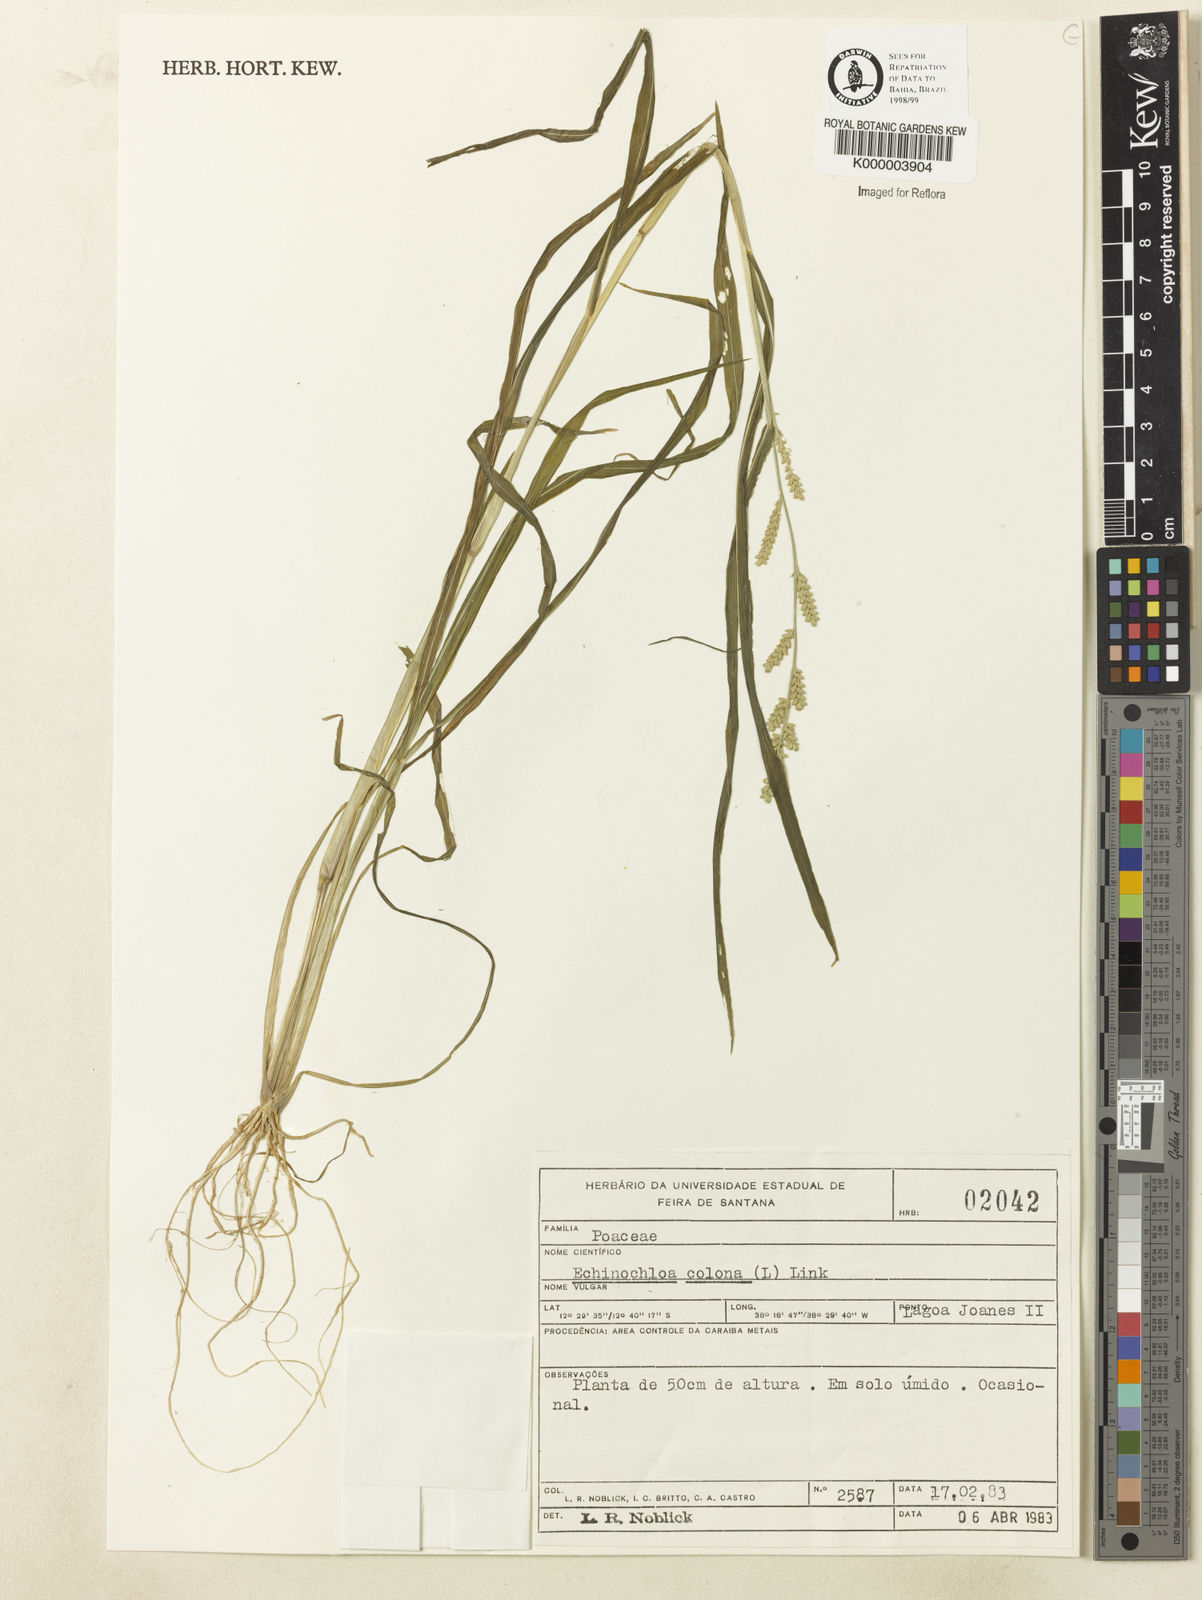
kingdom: Plantae
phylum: Tracheophyta
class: Liliopsida
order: Poales
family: Poaceae
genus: Echinochloa
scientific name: Echinochloa colonum
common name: Jungle rice
